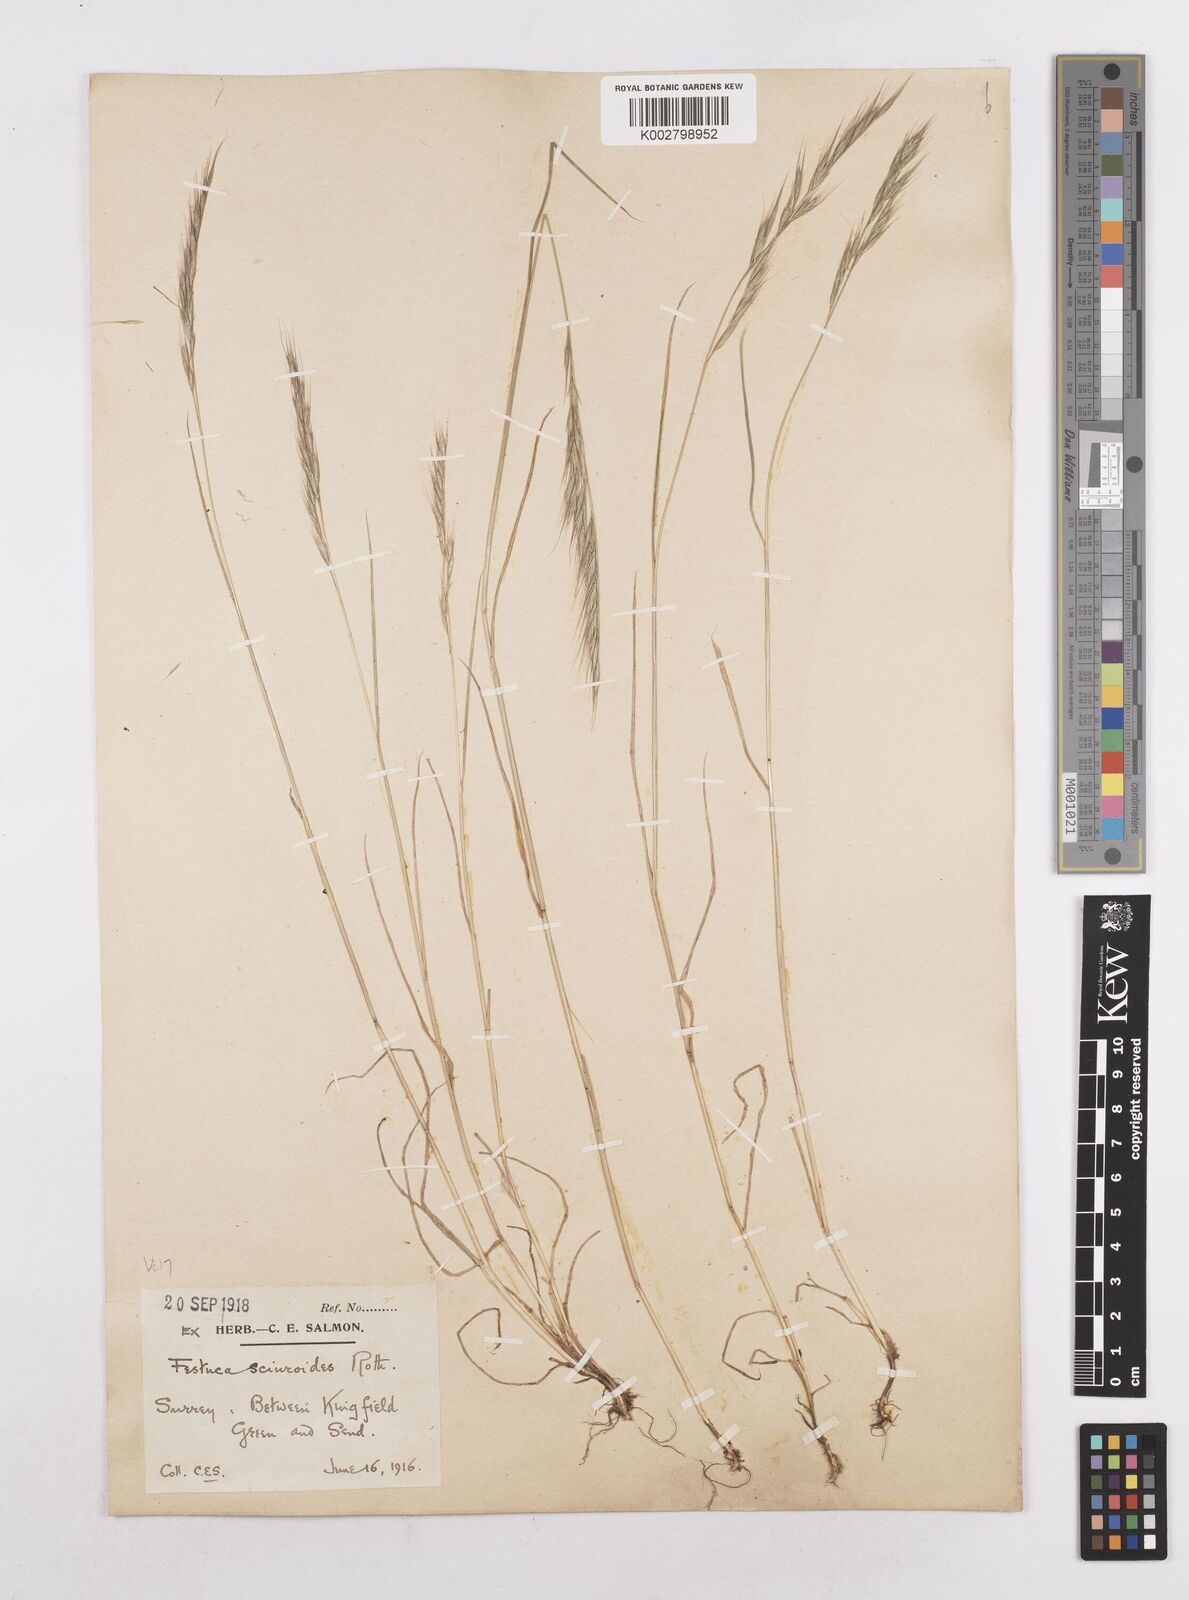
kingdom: Plantae
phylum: Tracheophyta
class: Liliopsida
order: Poales
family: Poaceae
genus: Festuca
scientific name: Festuca bromoides
